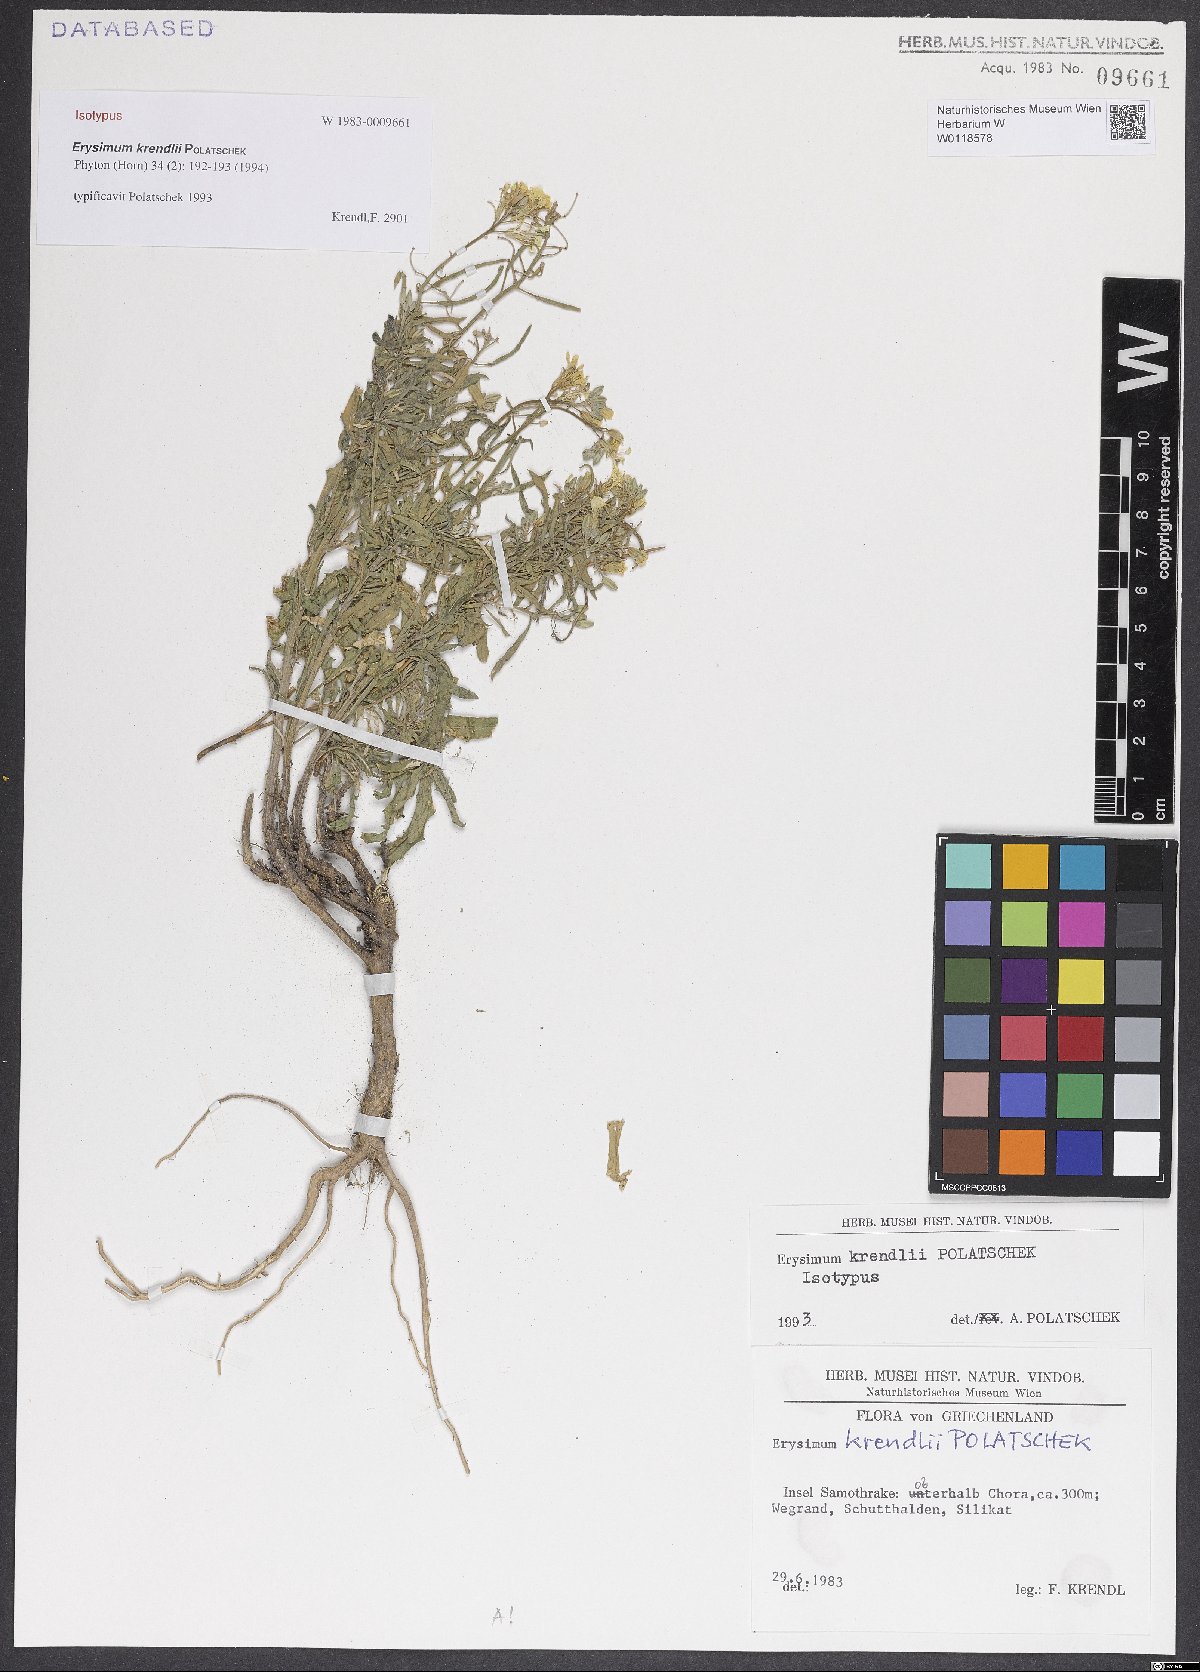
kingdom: Plantae
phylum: Tracheophyta
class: Magnoliopsida
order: Brassicales
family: Brassicaceae
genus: Erysimum
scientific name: Erysimum krendlii
